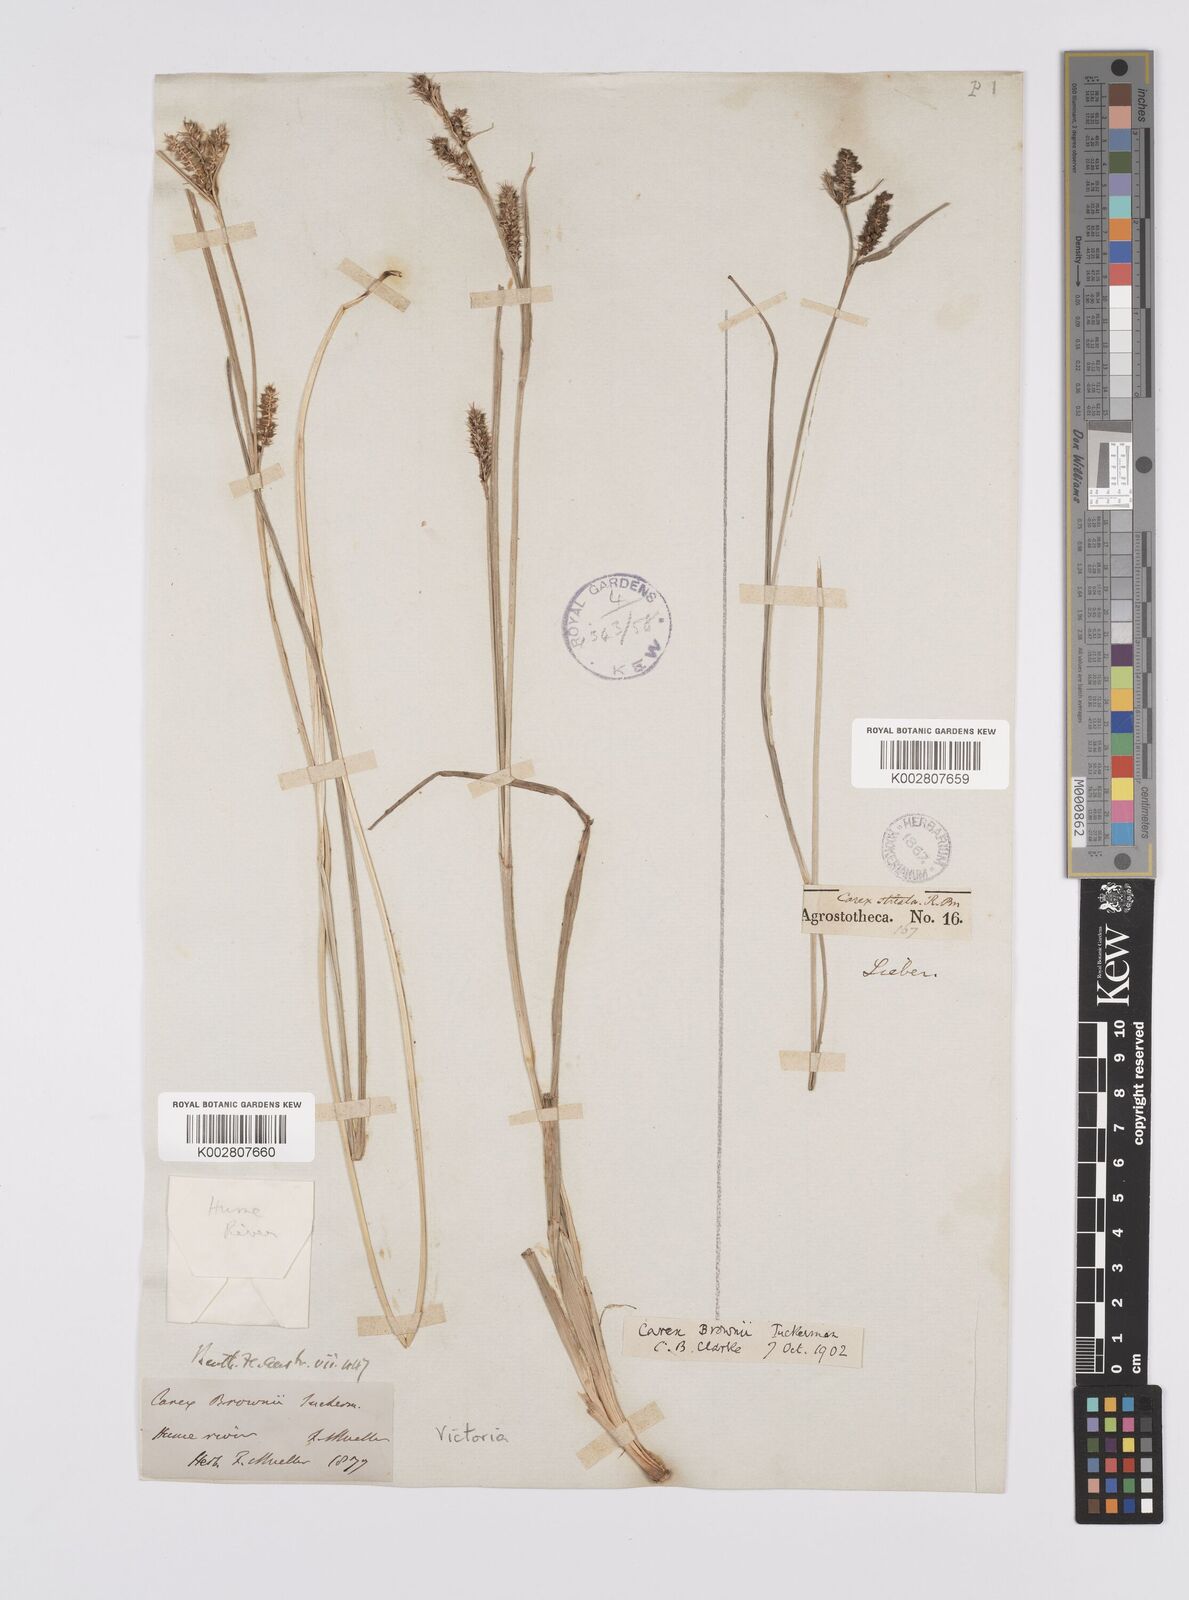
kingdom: Plantae
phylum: Tracheophyta
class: Liliopsida
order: Poales
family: Cyperaceae
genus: Carex
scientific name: Carex brownii
